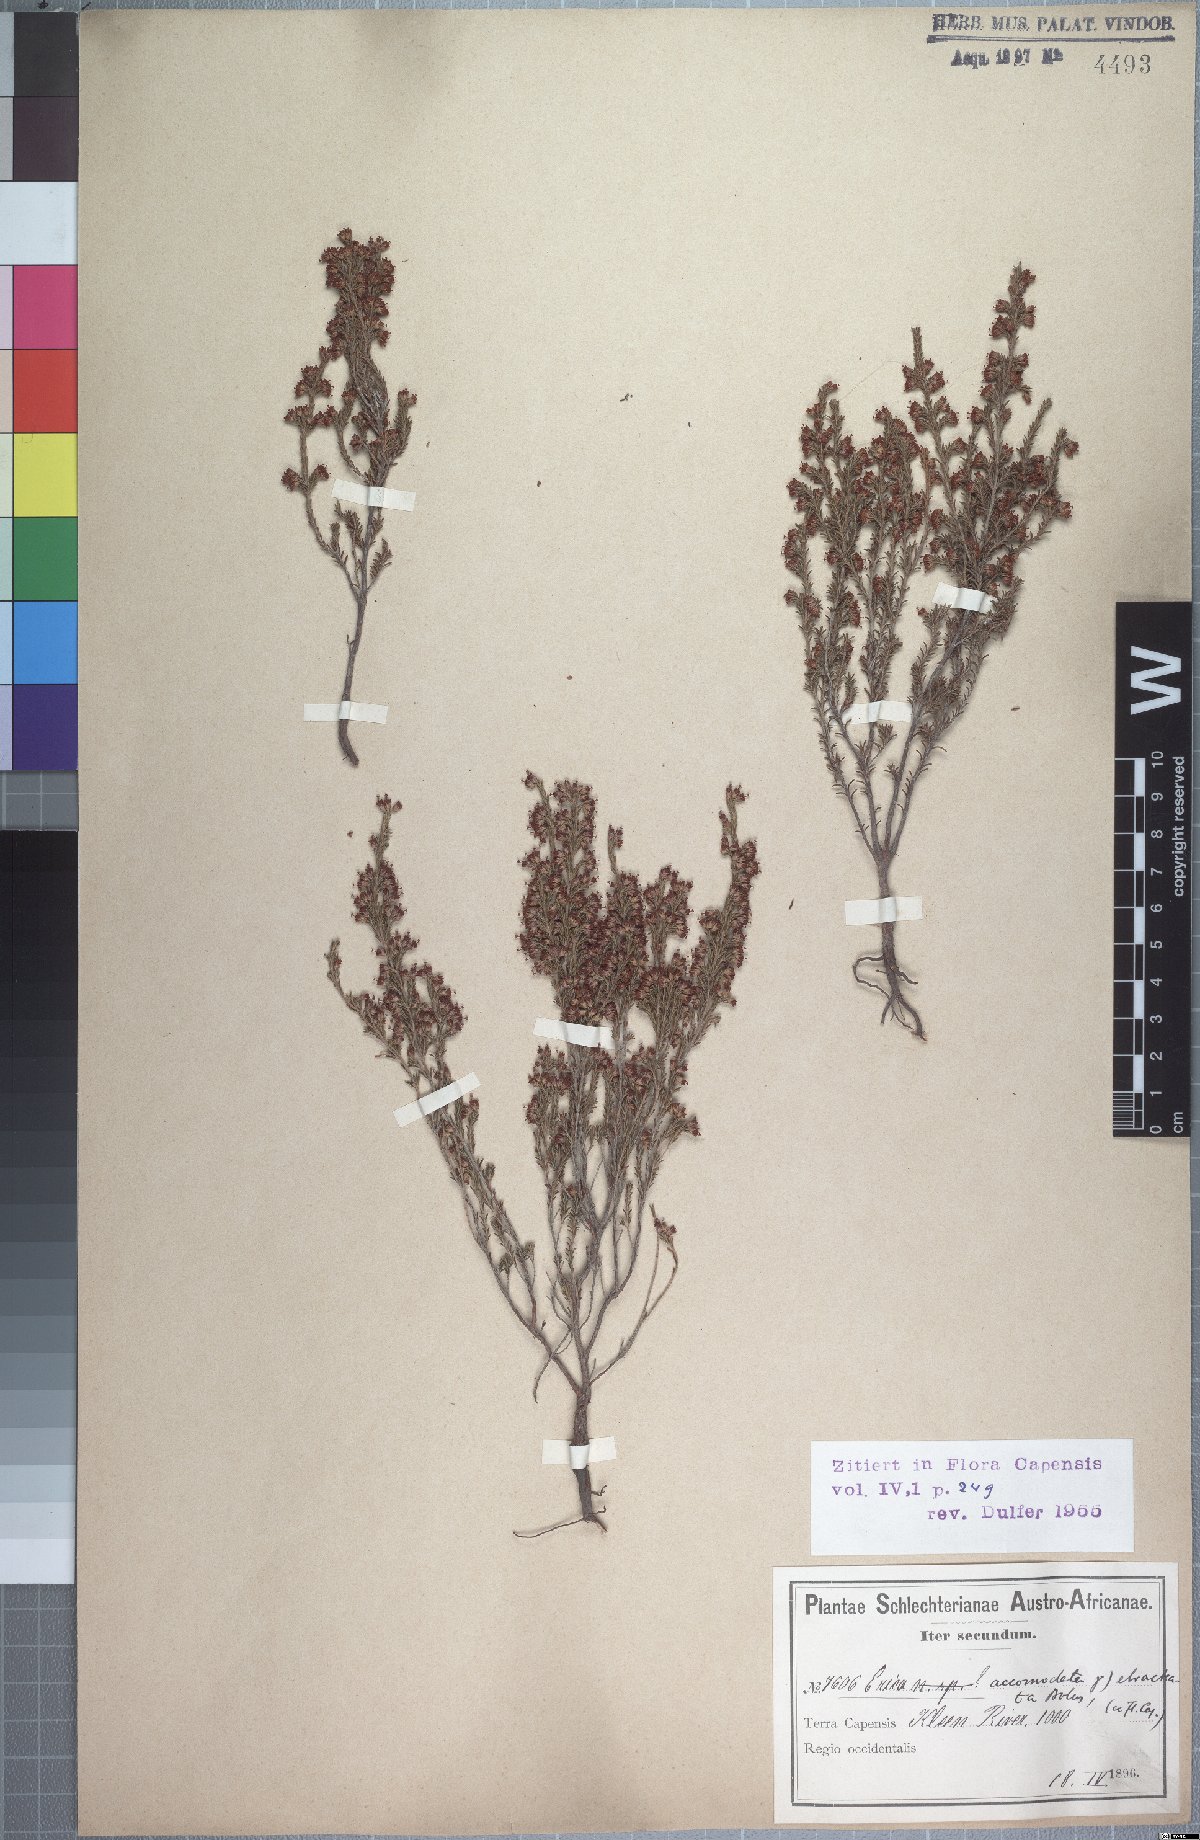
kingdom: Plantae
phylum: Tracheophyta
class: Magnoliopsida
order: Ericales
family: Ericaceae
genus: Erica
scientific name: Erica accommodata
